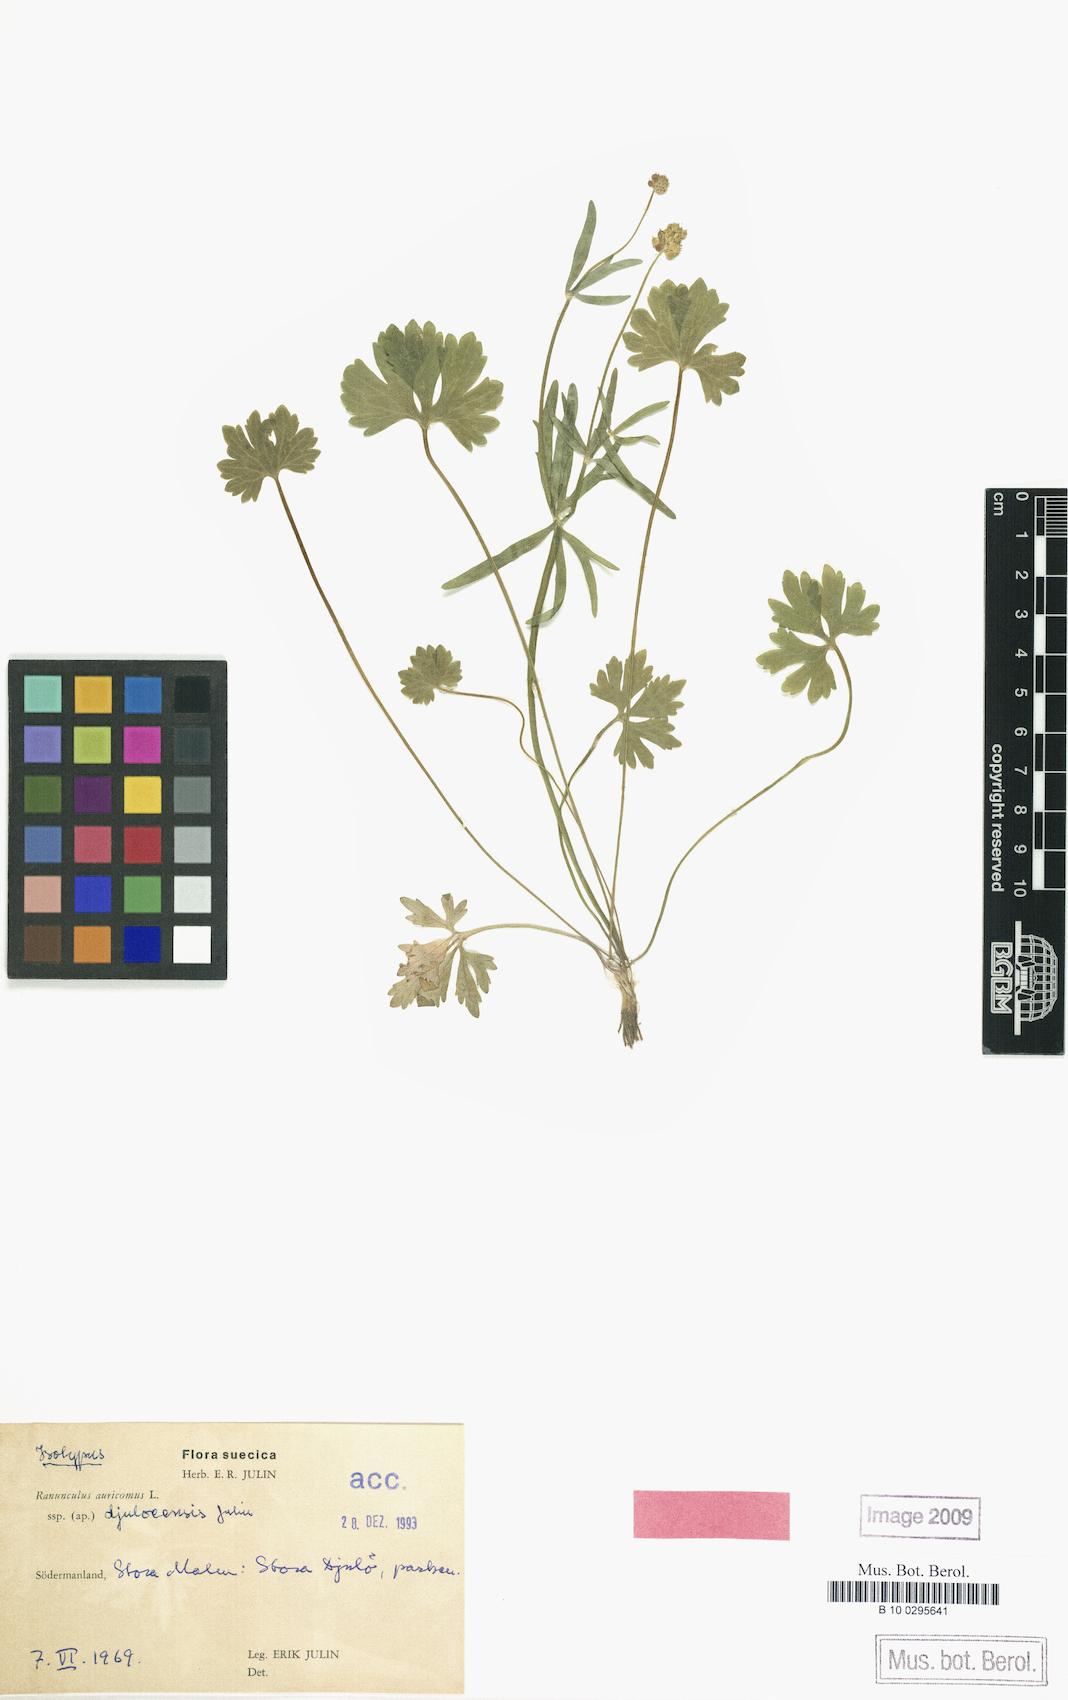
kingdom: Plantae
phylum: Tracheophyta
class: Magnoliopsida
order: Ranunculales
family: Ranunculaceae
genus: Ranunculus
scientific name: Ranunculus djuloeensis
